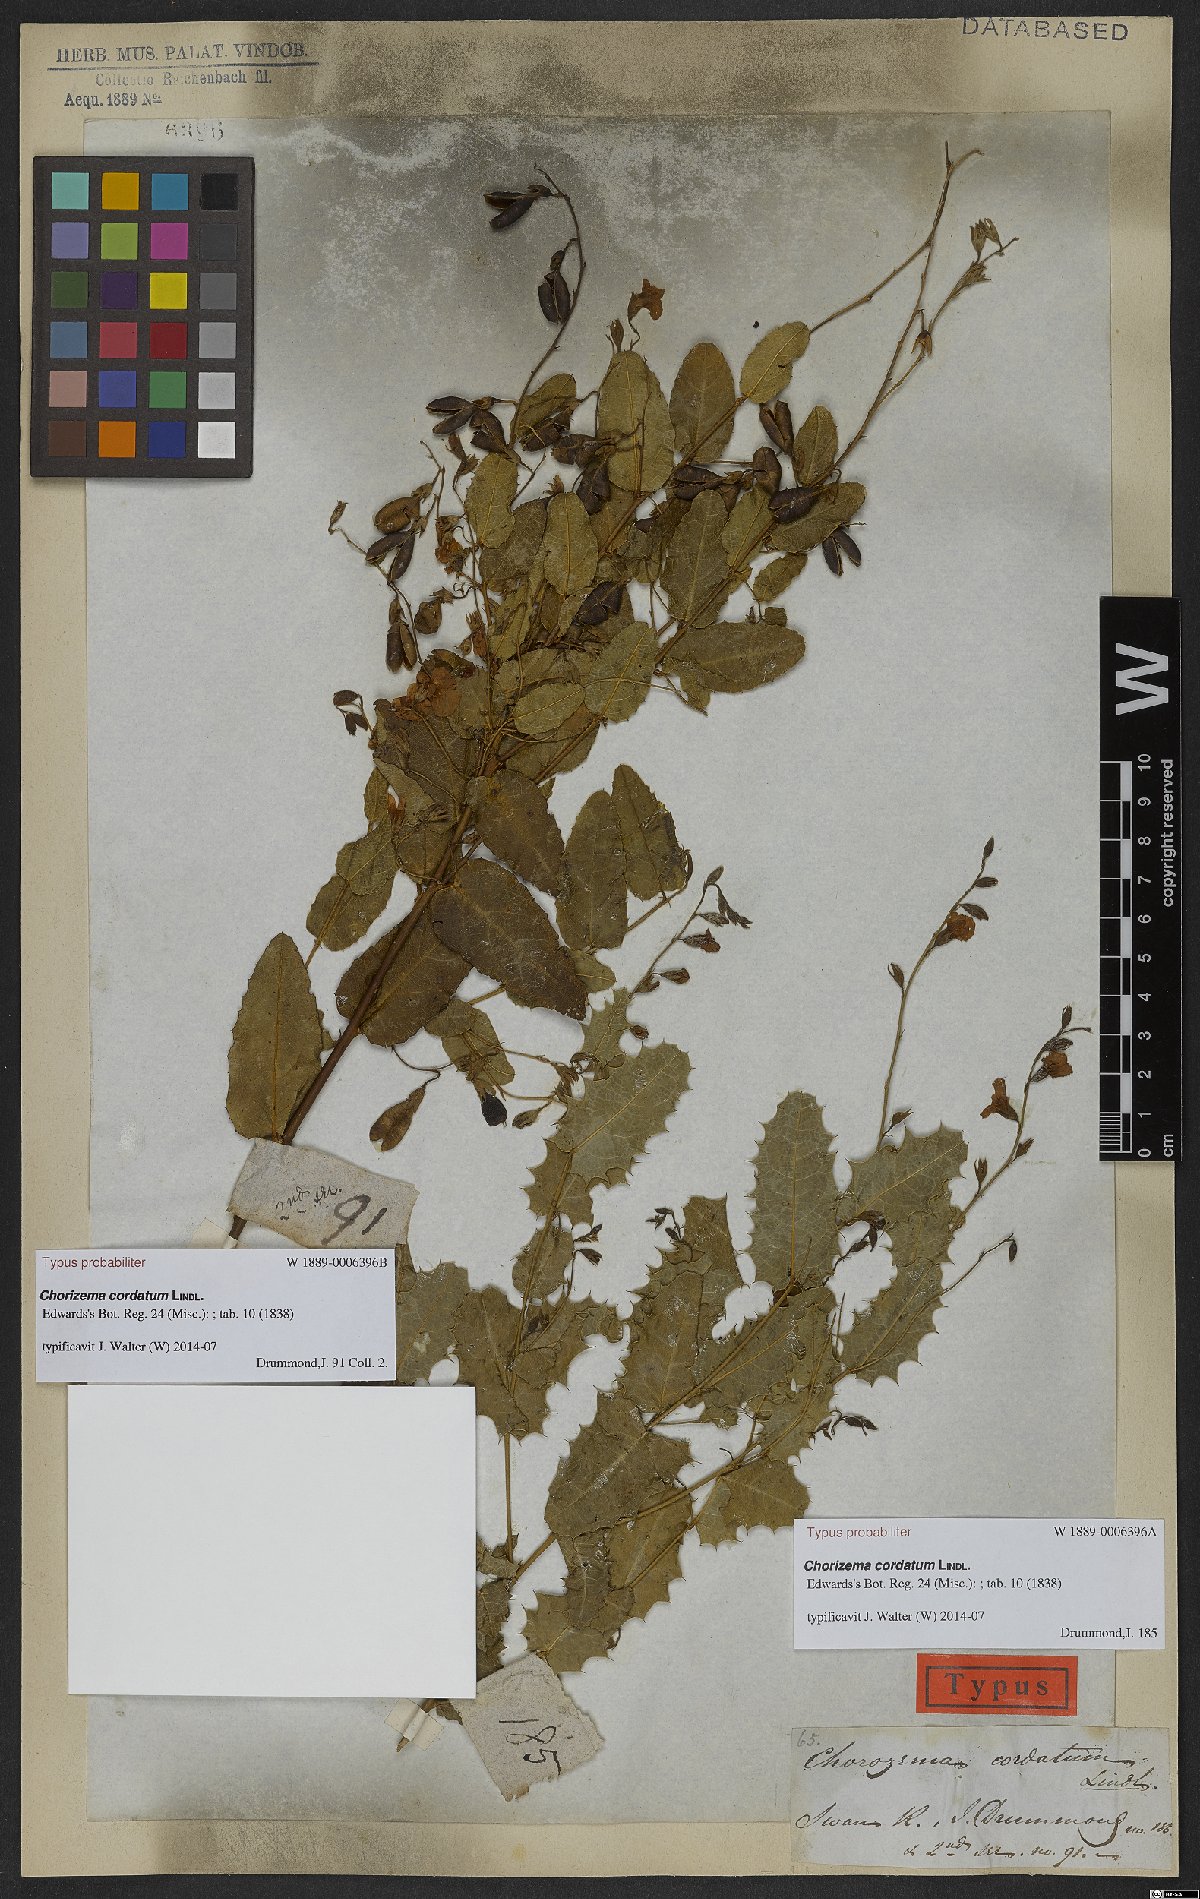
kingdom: Plantae
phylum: Tracheophyta
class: Magnoliopsida
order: Fabales
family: Fabaceae
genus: Chorizema
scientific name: Chorizema cordatum
